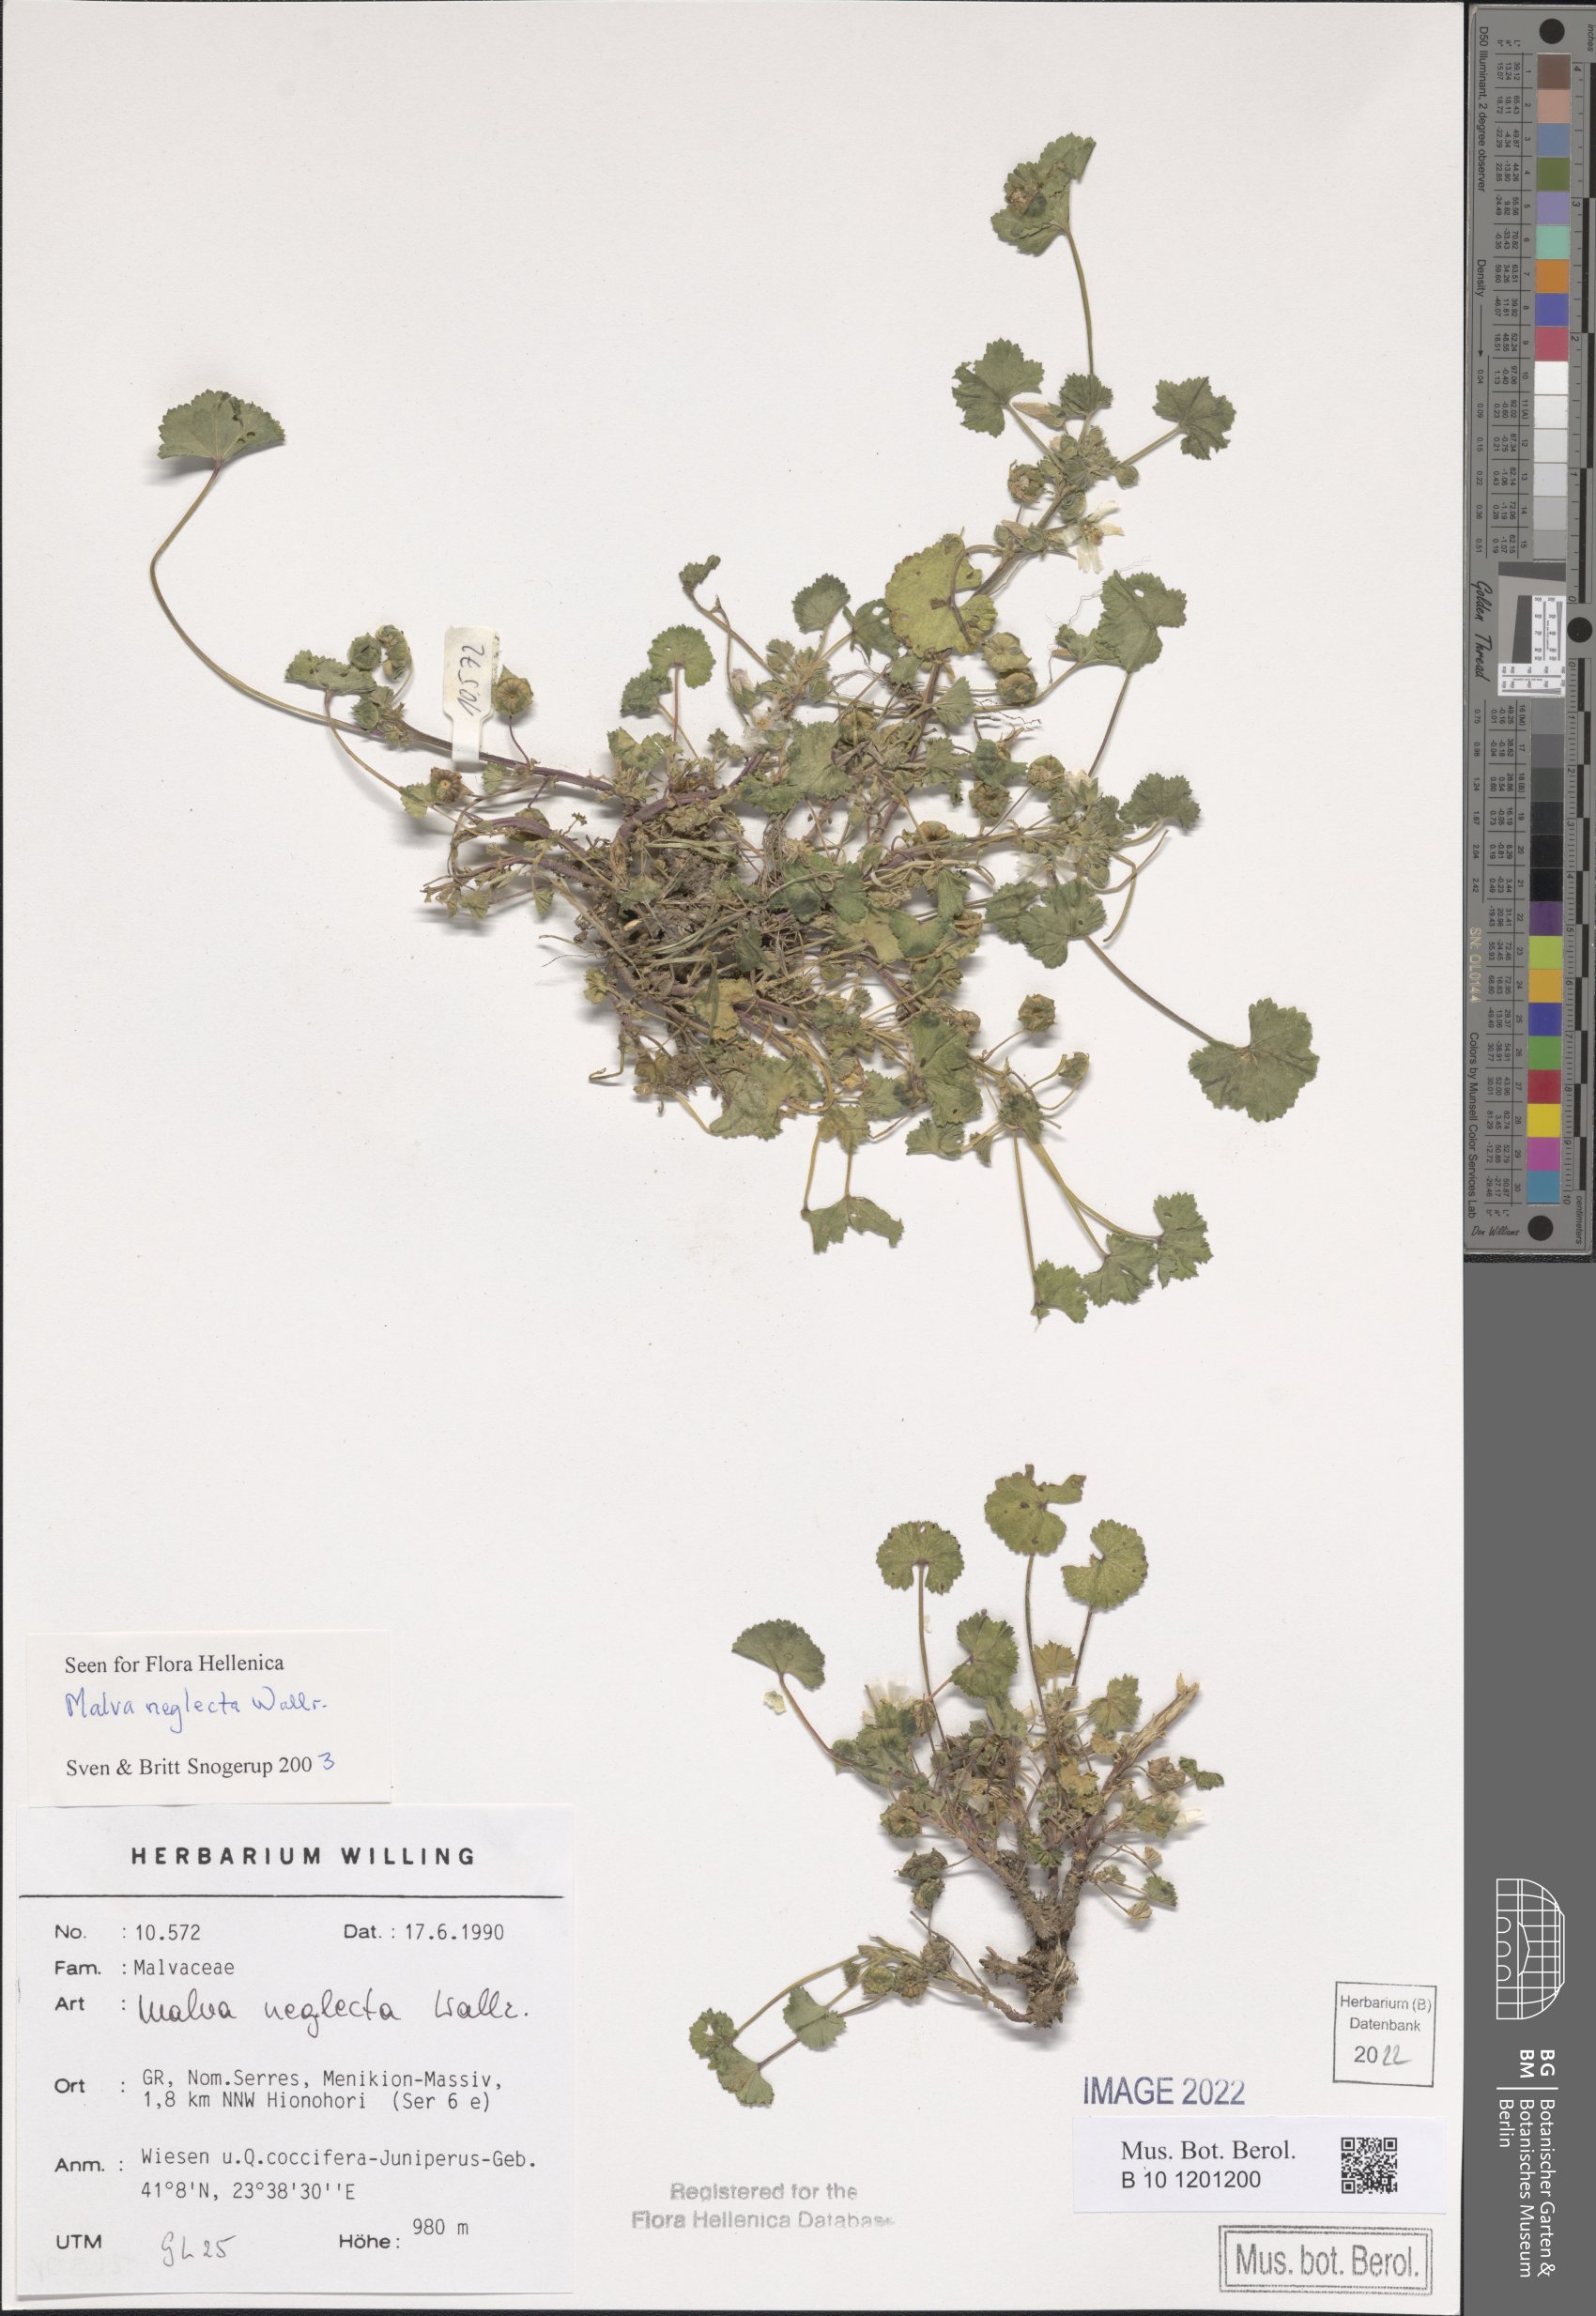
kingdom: Plantae
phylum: Tracheophyta
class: Magnoliopsida
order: Malvales
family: Malvaceae
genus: Malva
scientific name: Malva neglecta
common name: Common mallow
